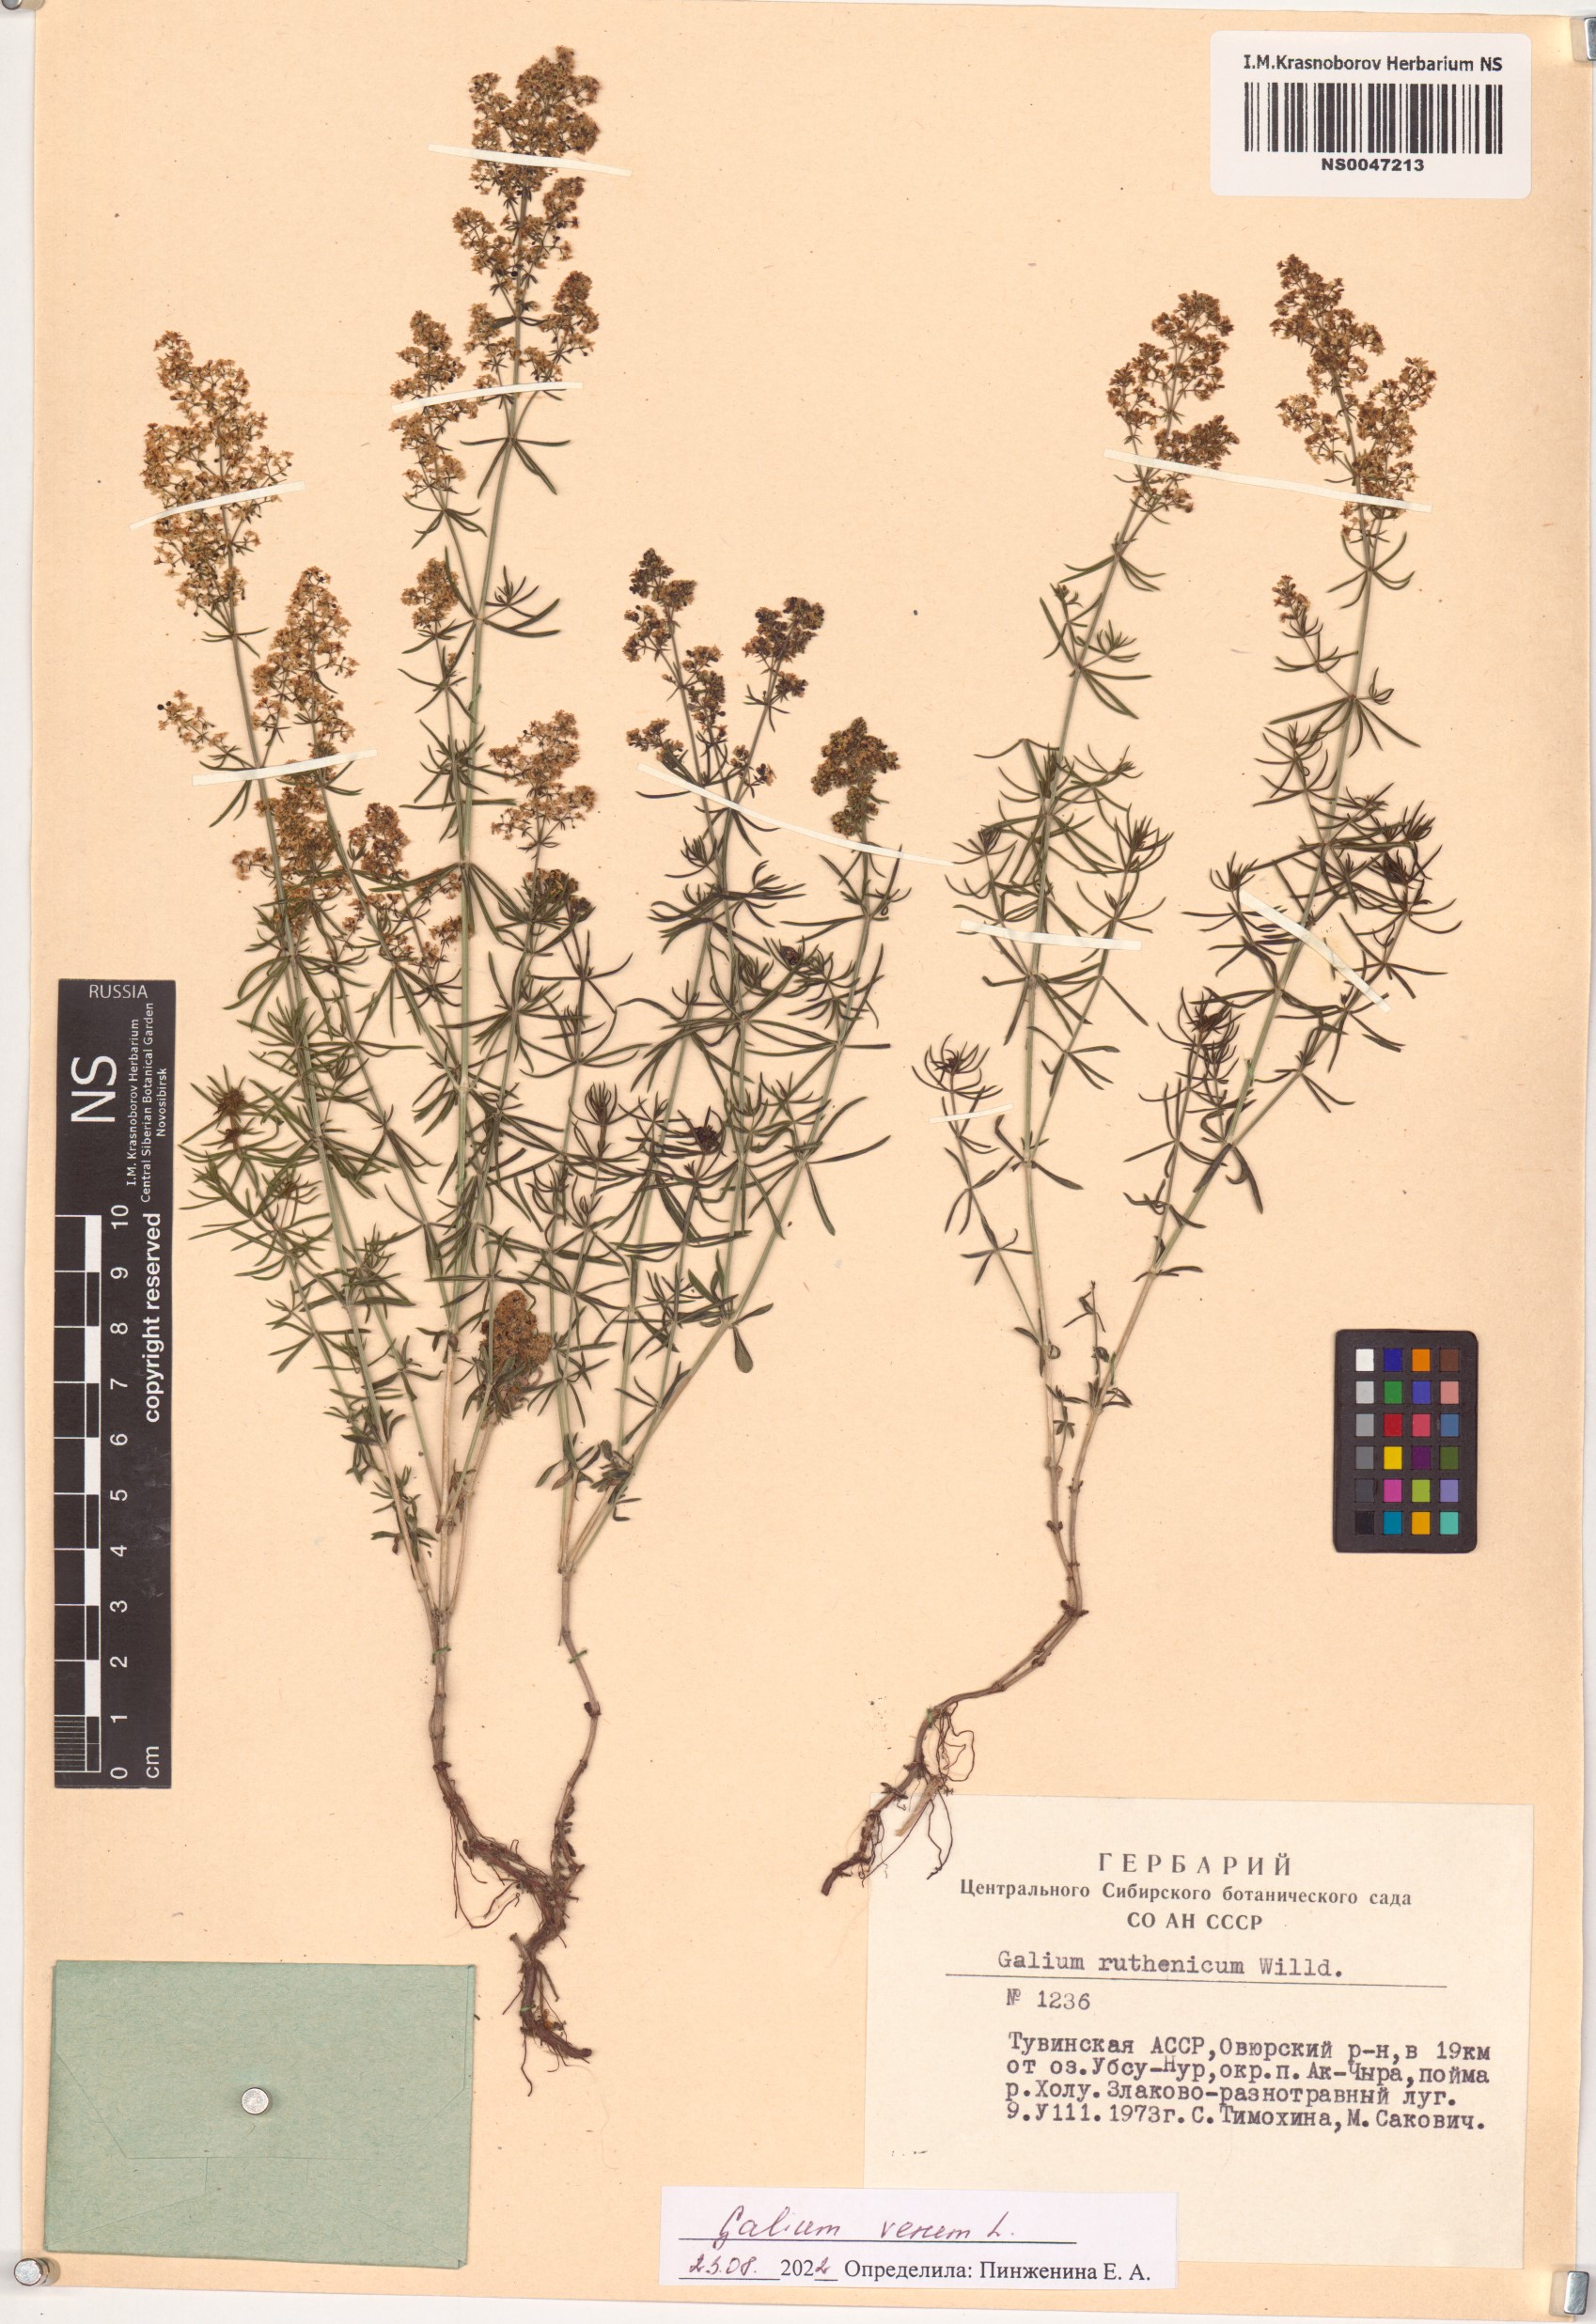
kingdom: Plantae
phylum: Tracheophyta
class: Magnoliopsida
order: Gentianales
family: Rubiaceae
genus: Galium
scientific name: Galium verum
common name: Lady's bedstraw
